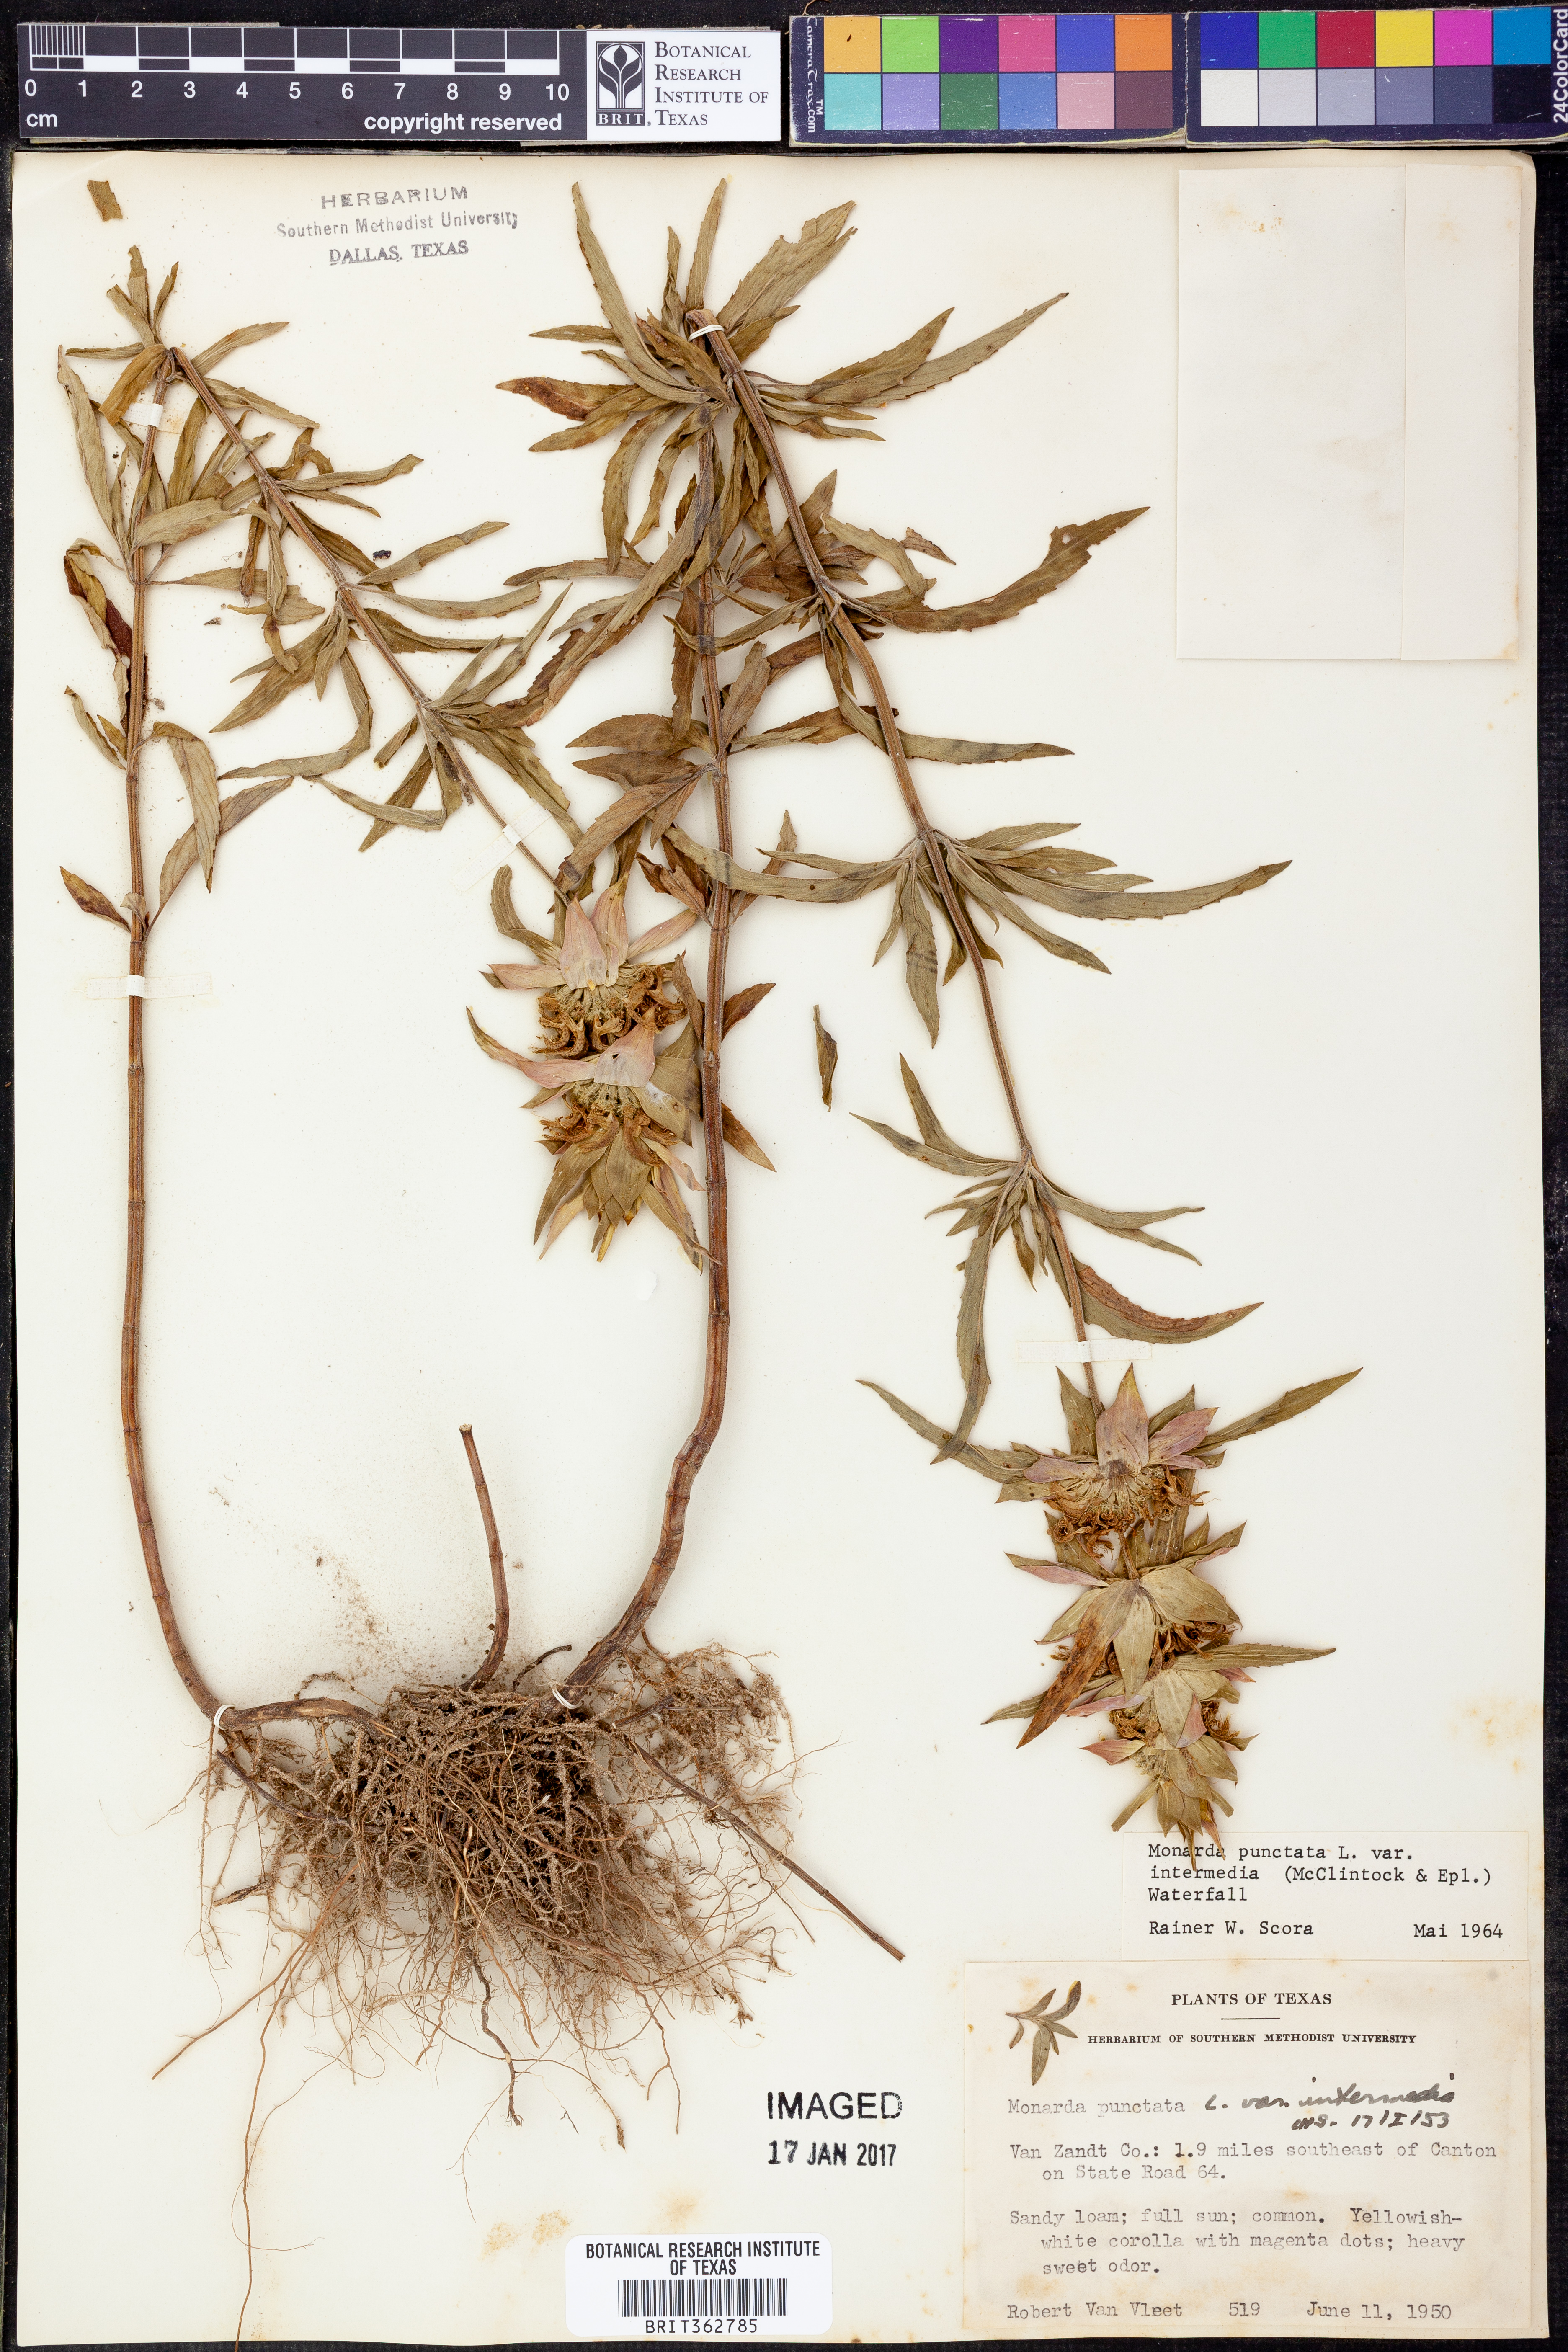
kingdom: Plantae
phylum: Tracheophyta
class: Magnoliopsida
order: Lamiales
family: Lamiaceae
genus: Monarda
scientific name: Monarda punctata
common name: Dotted monarda
